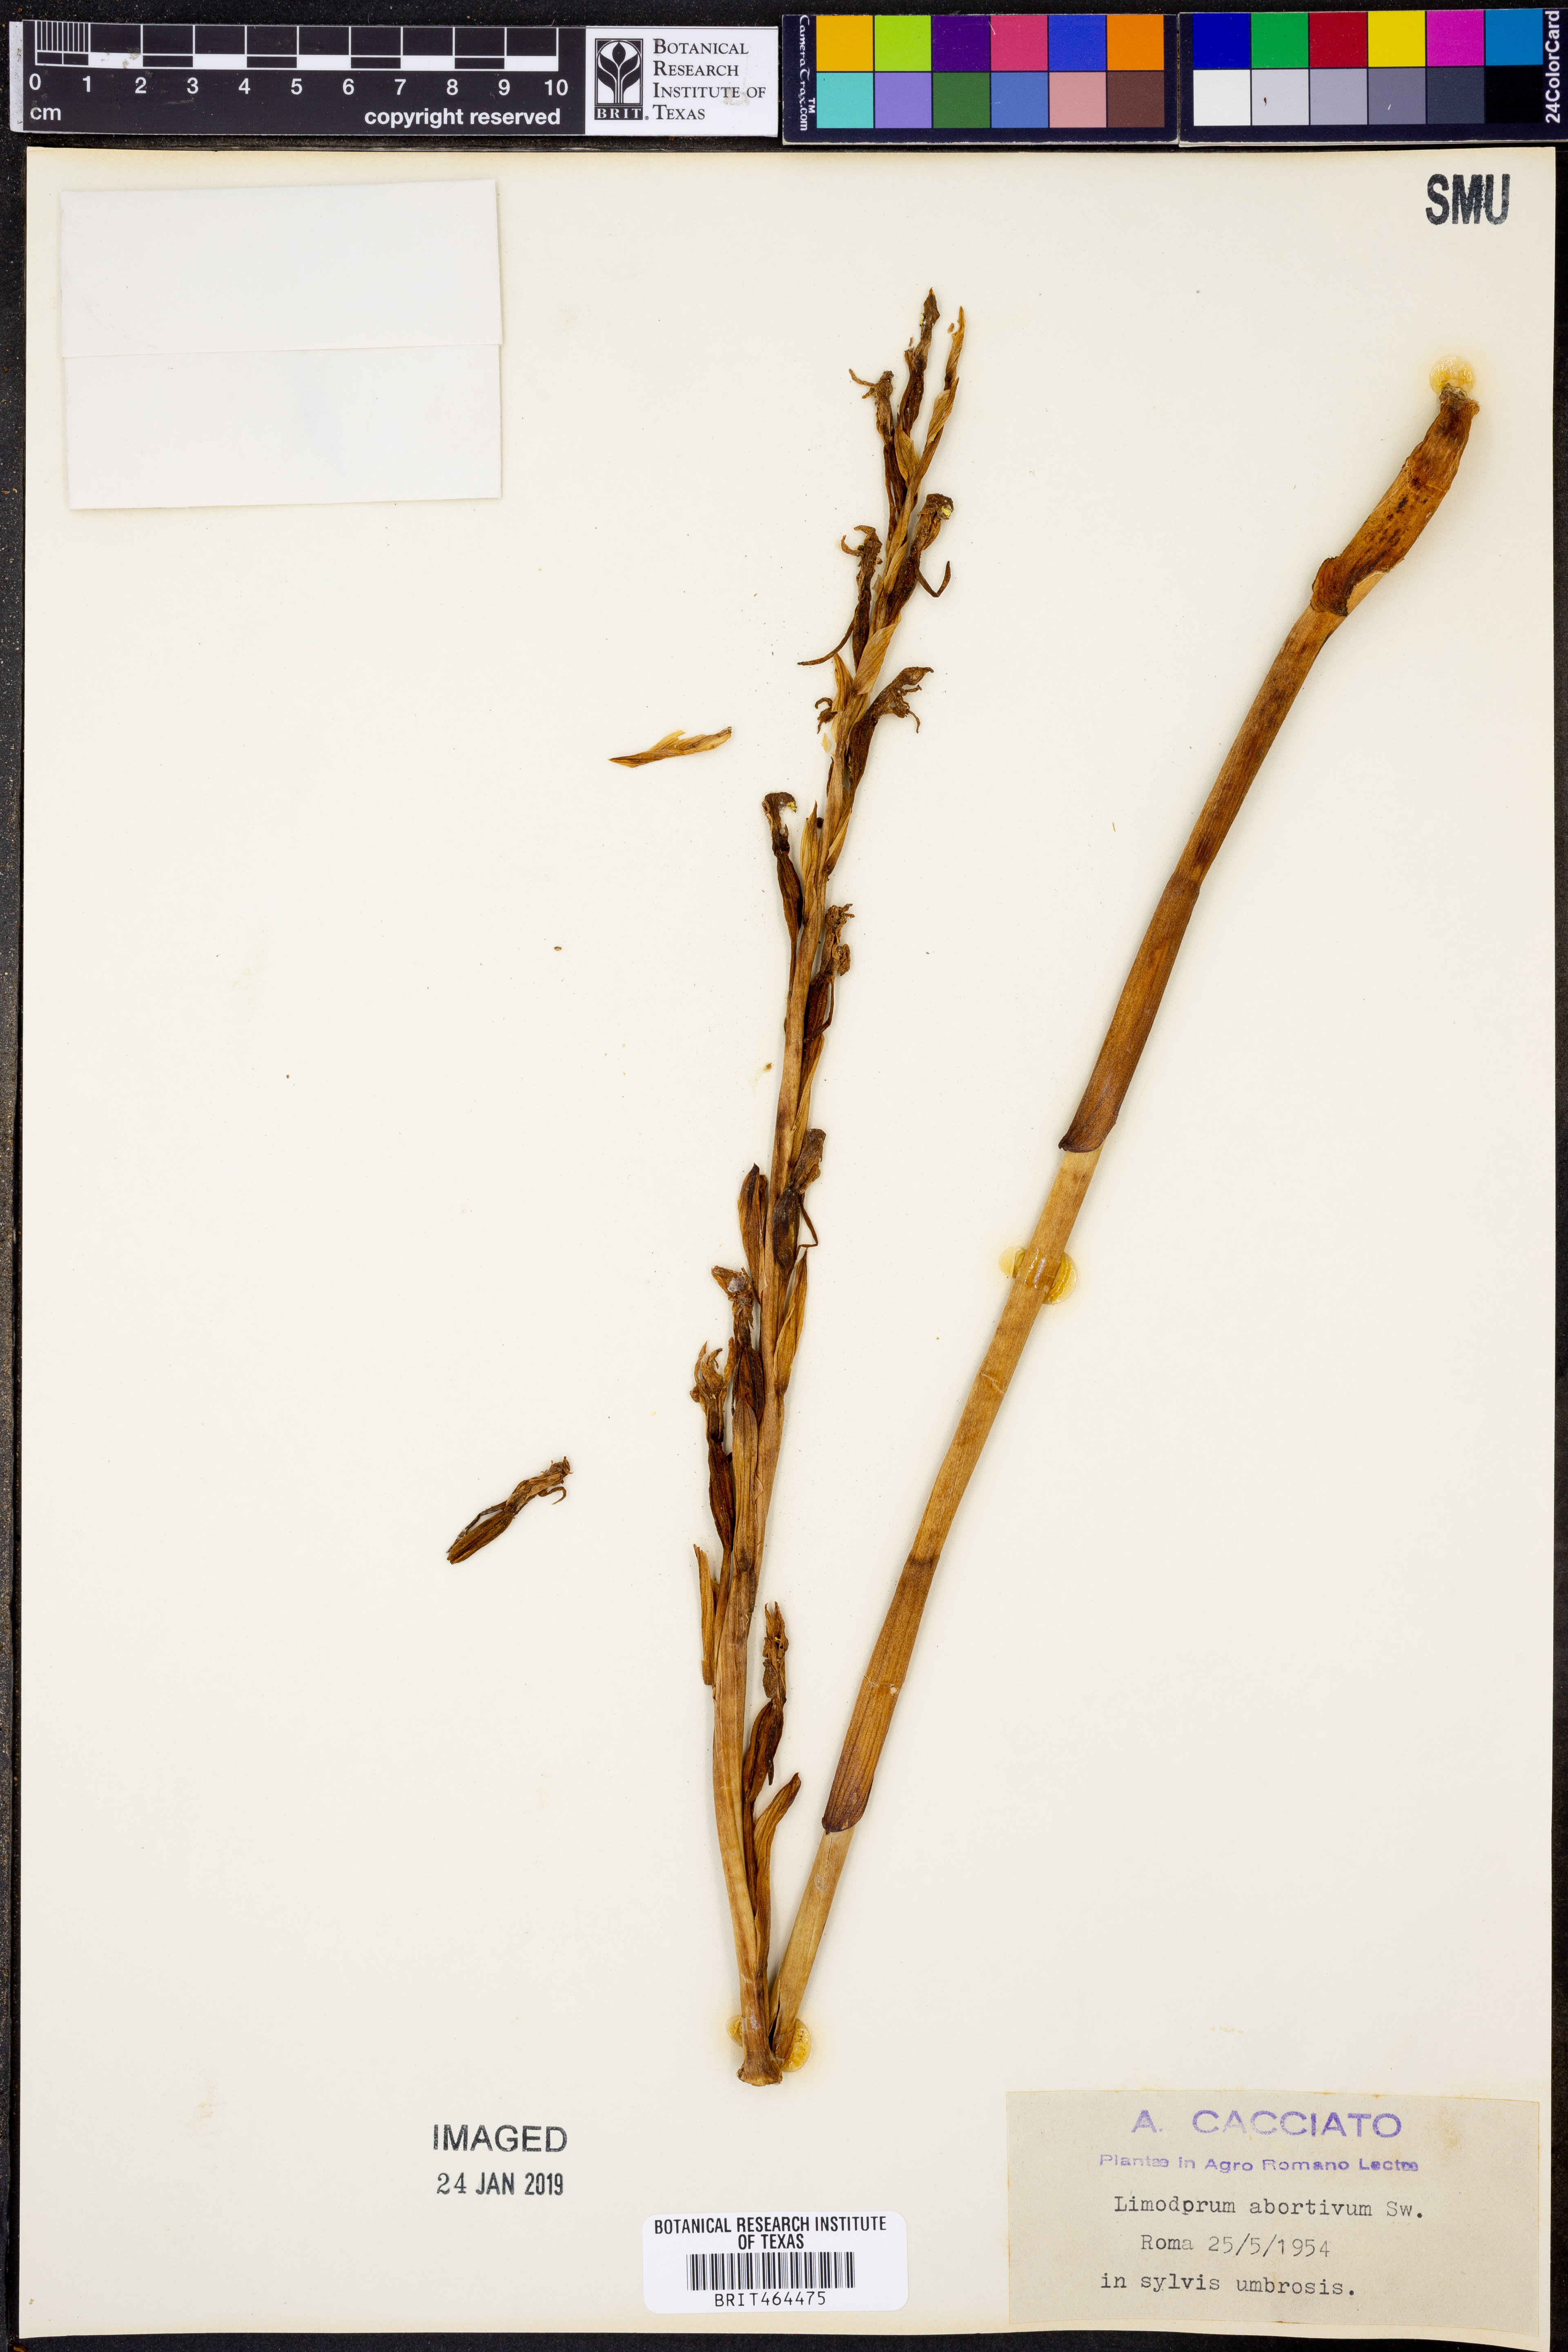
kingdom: Plantae
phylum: Tracheophyta
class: Liliopsida
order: Asparagales
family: Orchidaceae
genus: Limodorum
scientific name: Limodorum abortivum
